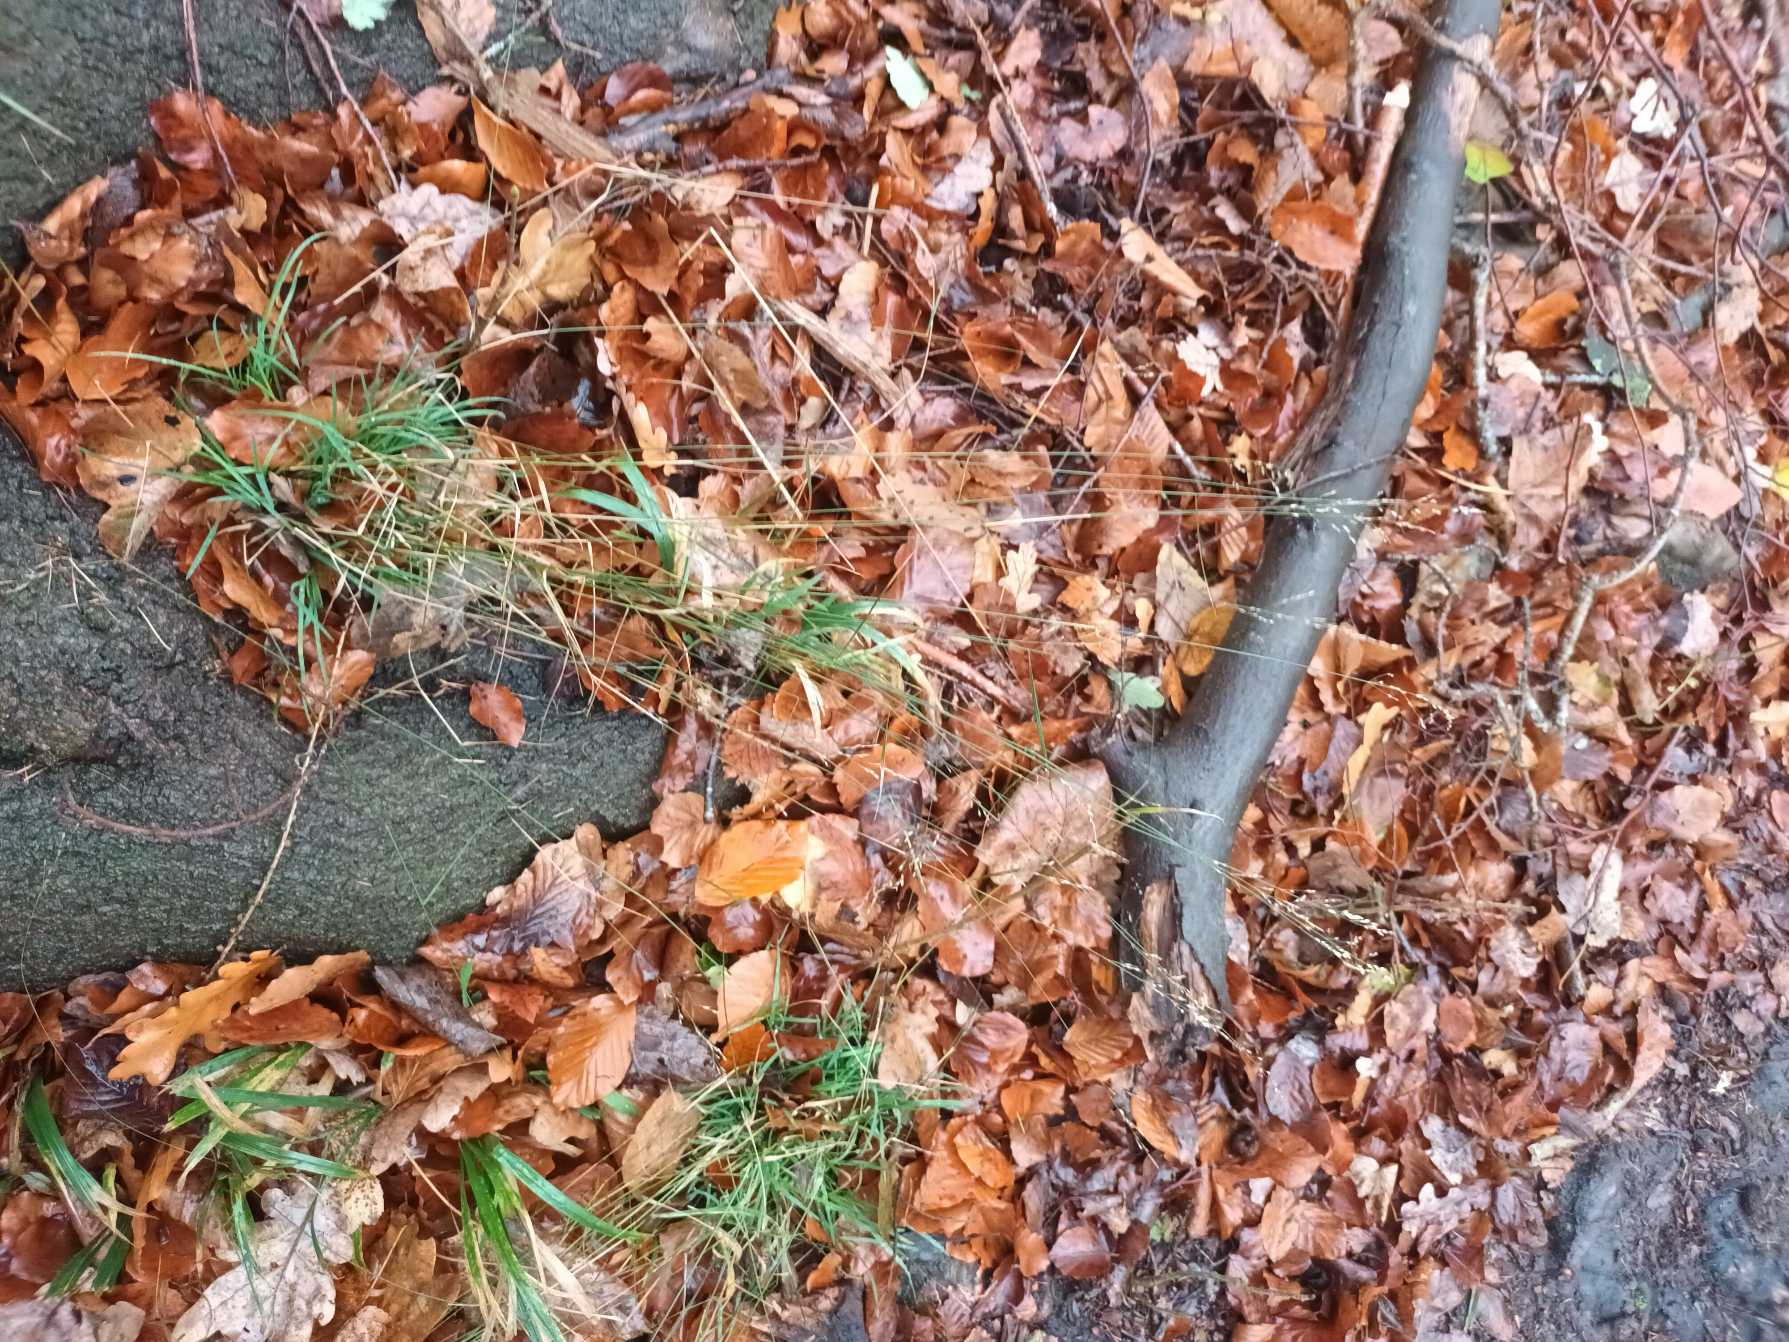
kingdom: Plantae
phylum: Tracheophyta
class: Liliopsida
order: Poales
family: Poaceae
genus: Poa
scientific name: Poa nemoralis
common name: Lund-rapgræs
